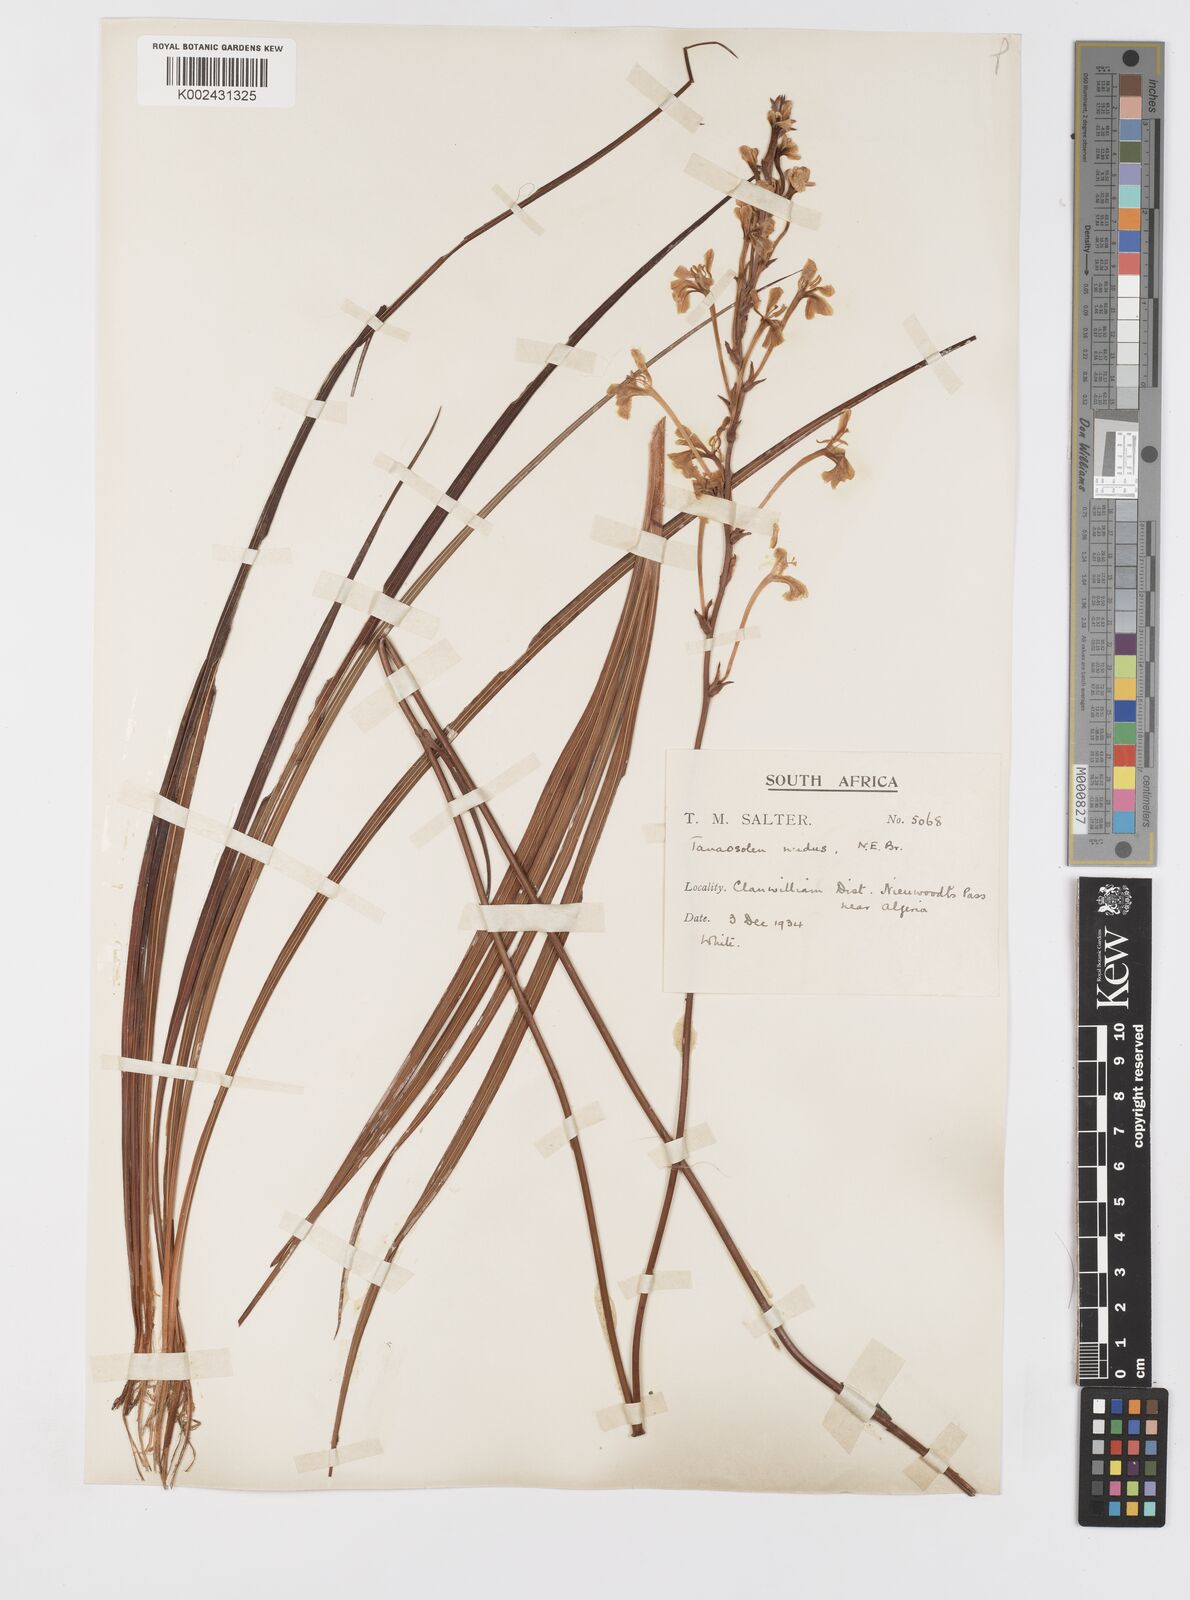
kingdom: Plantae
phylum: Tracheophyta
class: Liliopsida
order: Asparagales
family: Iridaceae
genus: Tritoniopsis
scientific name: Tritoniopsis nervosa
